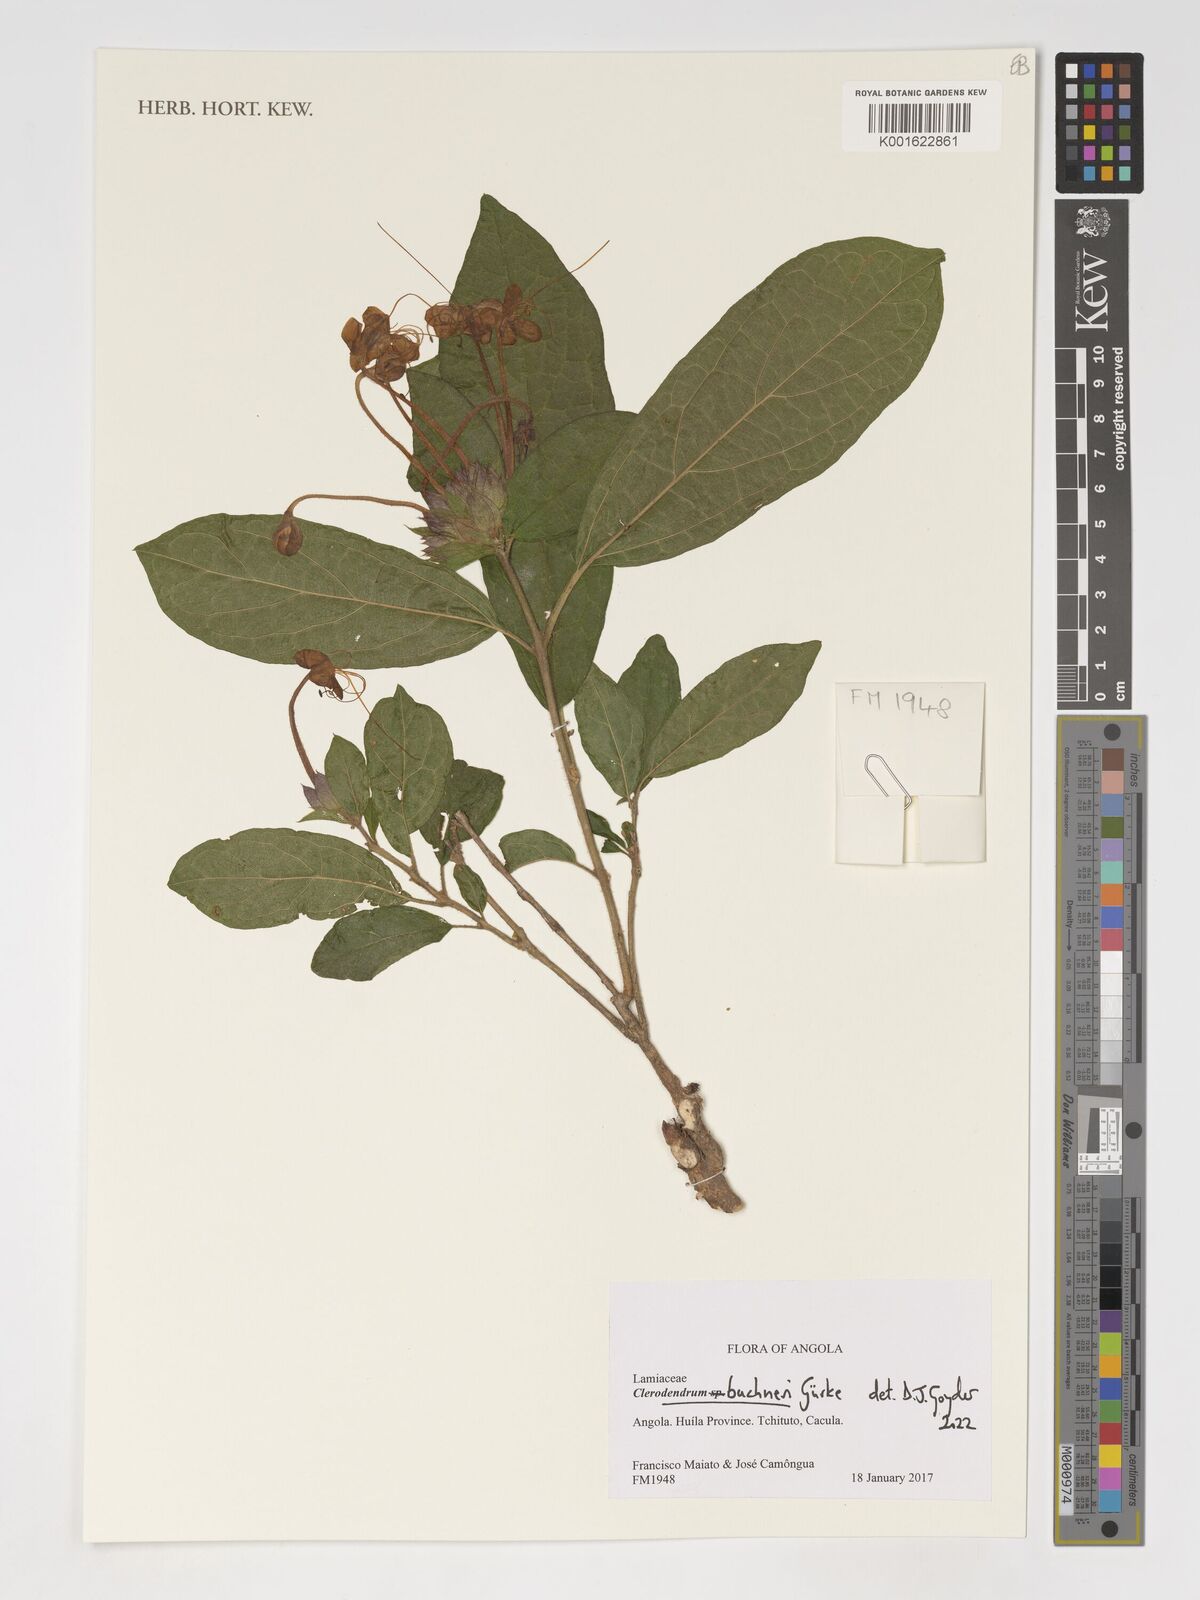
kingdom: Plantae
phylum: Tracheophyta
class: Magnoliopsida
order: Lamiales
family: Lamiaceae
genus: Clerodendrum
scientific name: Clerodendrum buchneri
